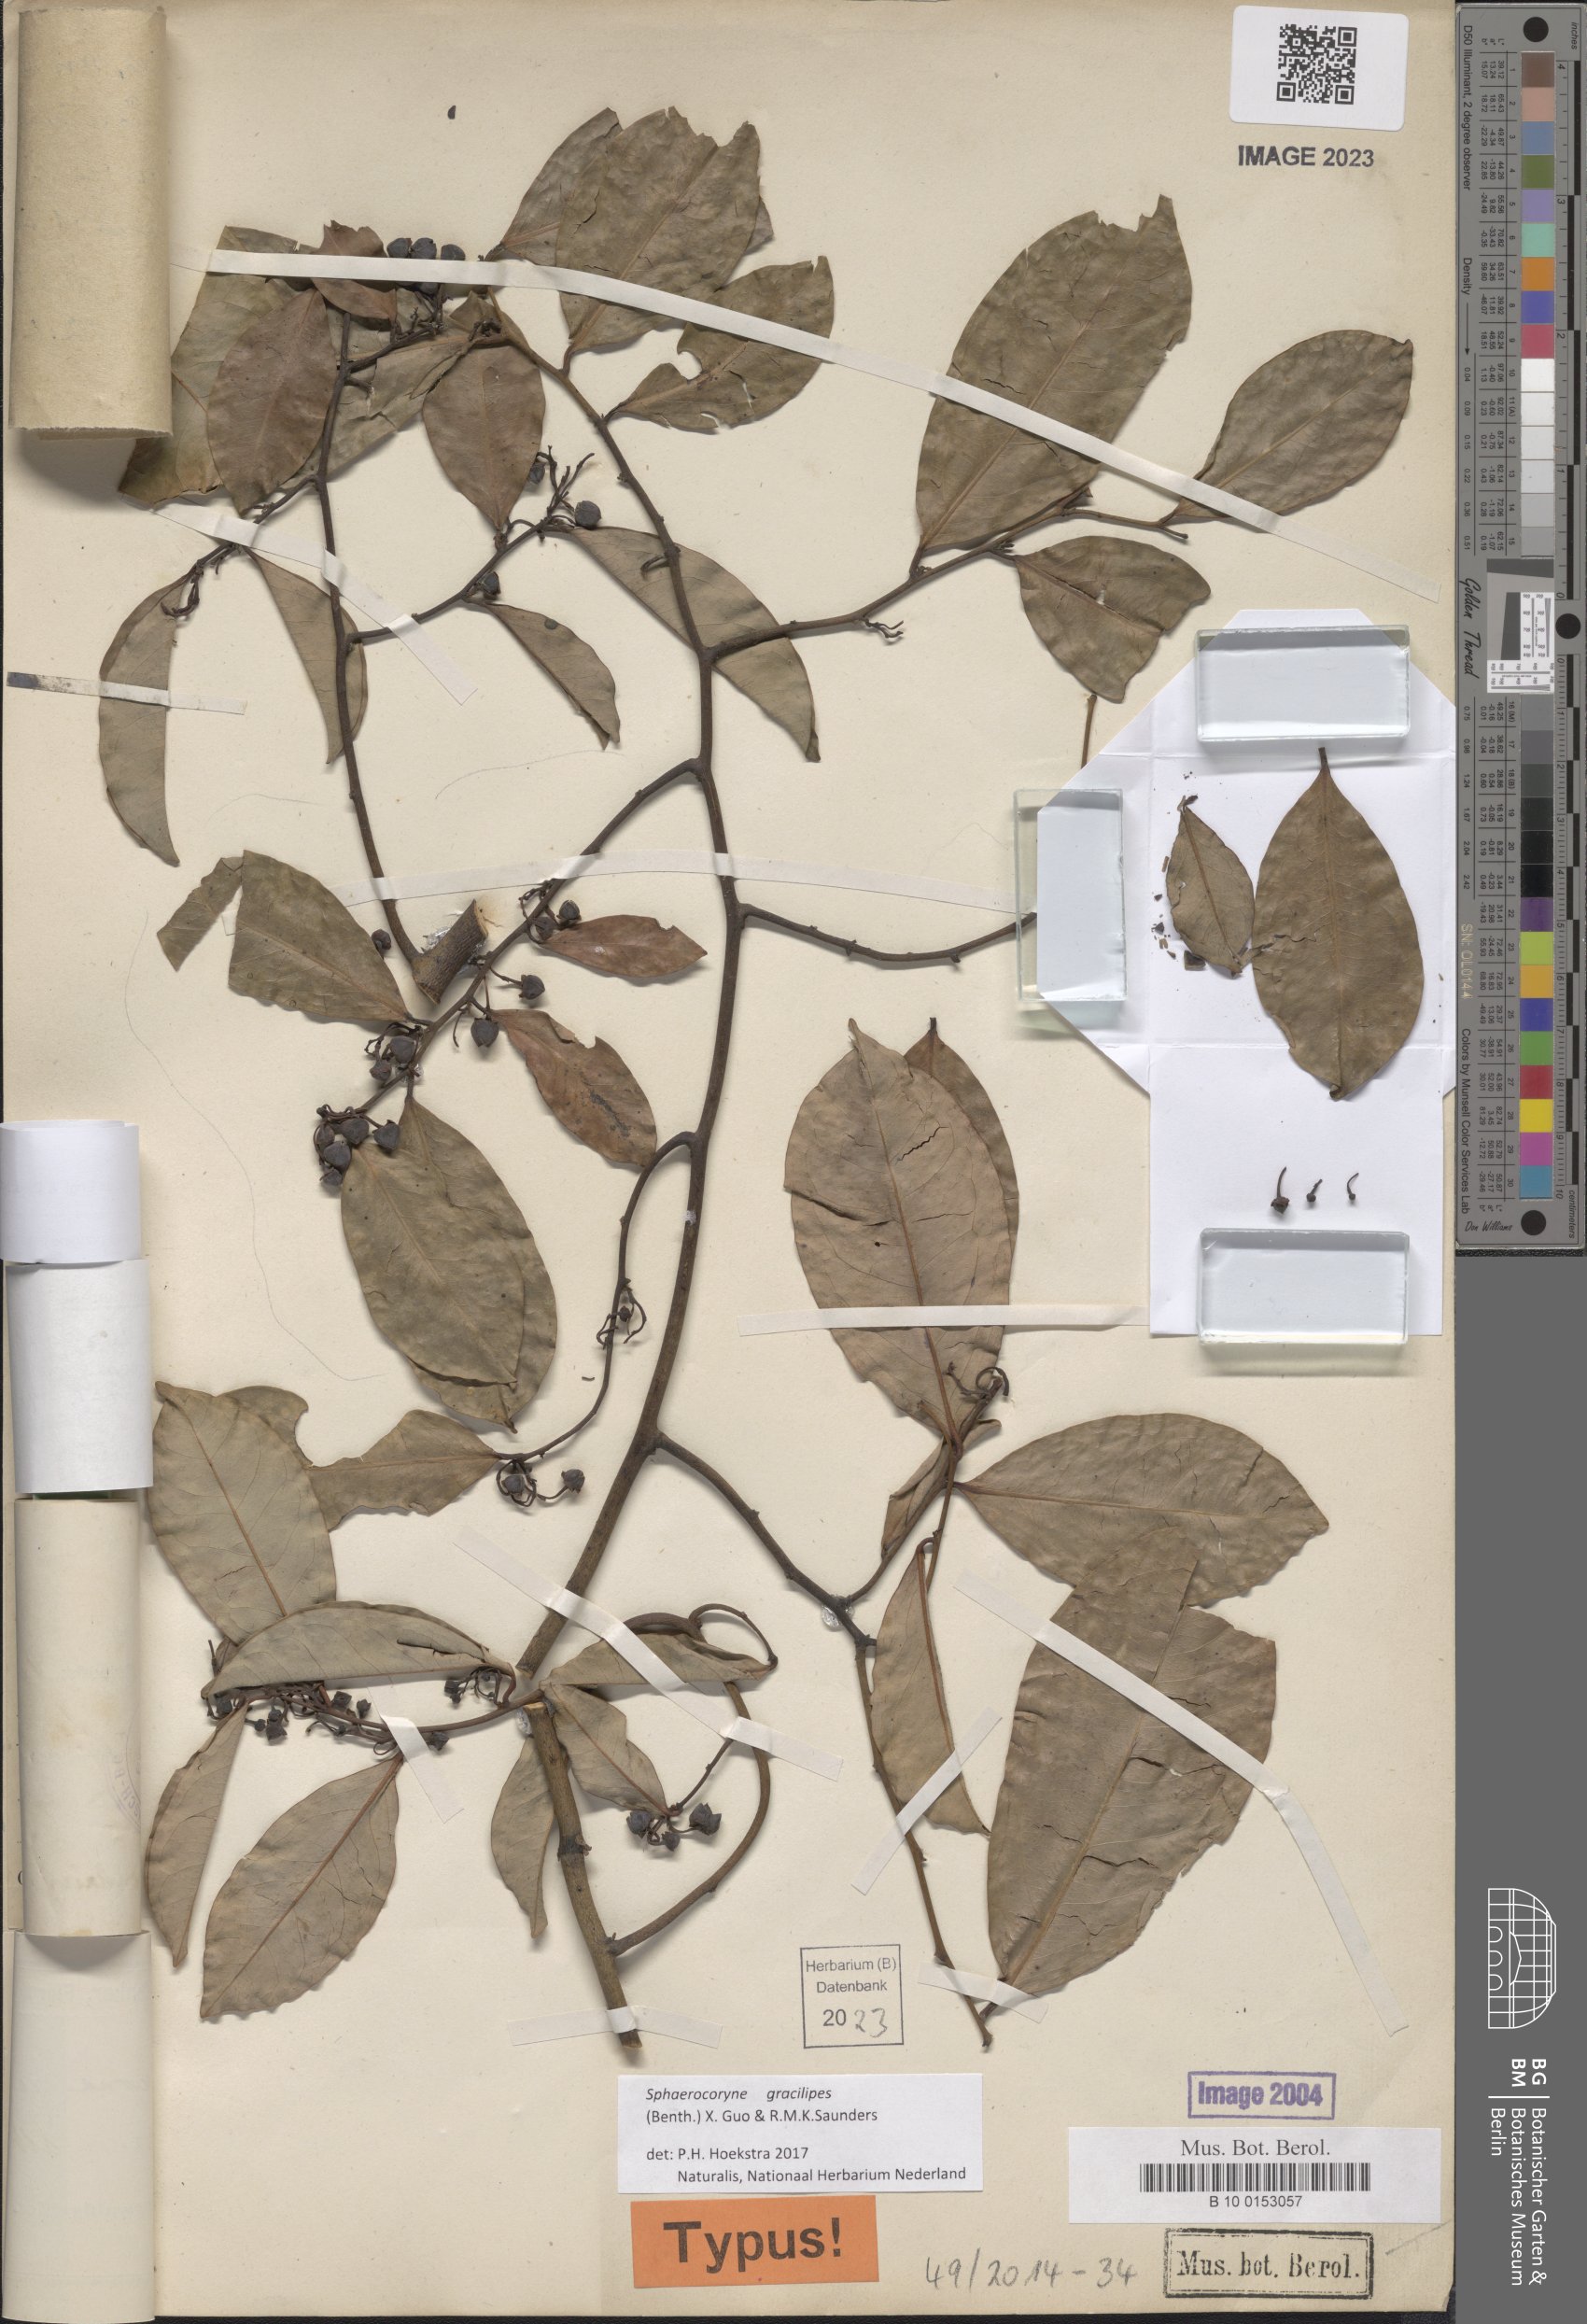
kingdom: Plantae
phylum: Tracheophyta
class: Magnoliopsida
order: Magnoliales
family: Annonaceae
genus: Friesodielsia
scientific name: Friesodielsia gracilipes
